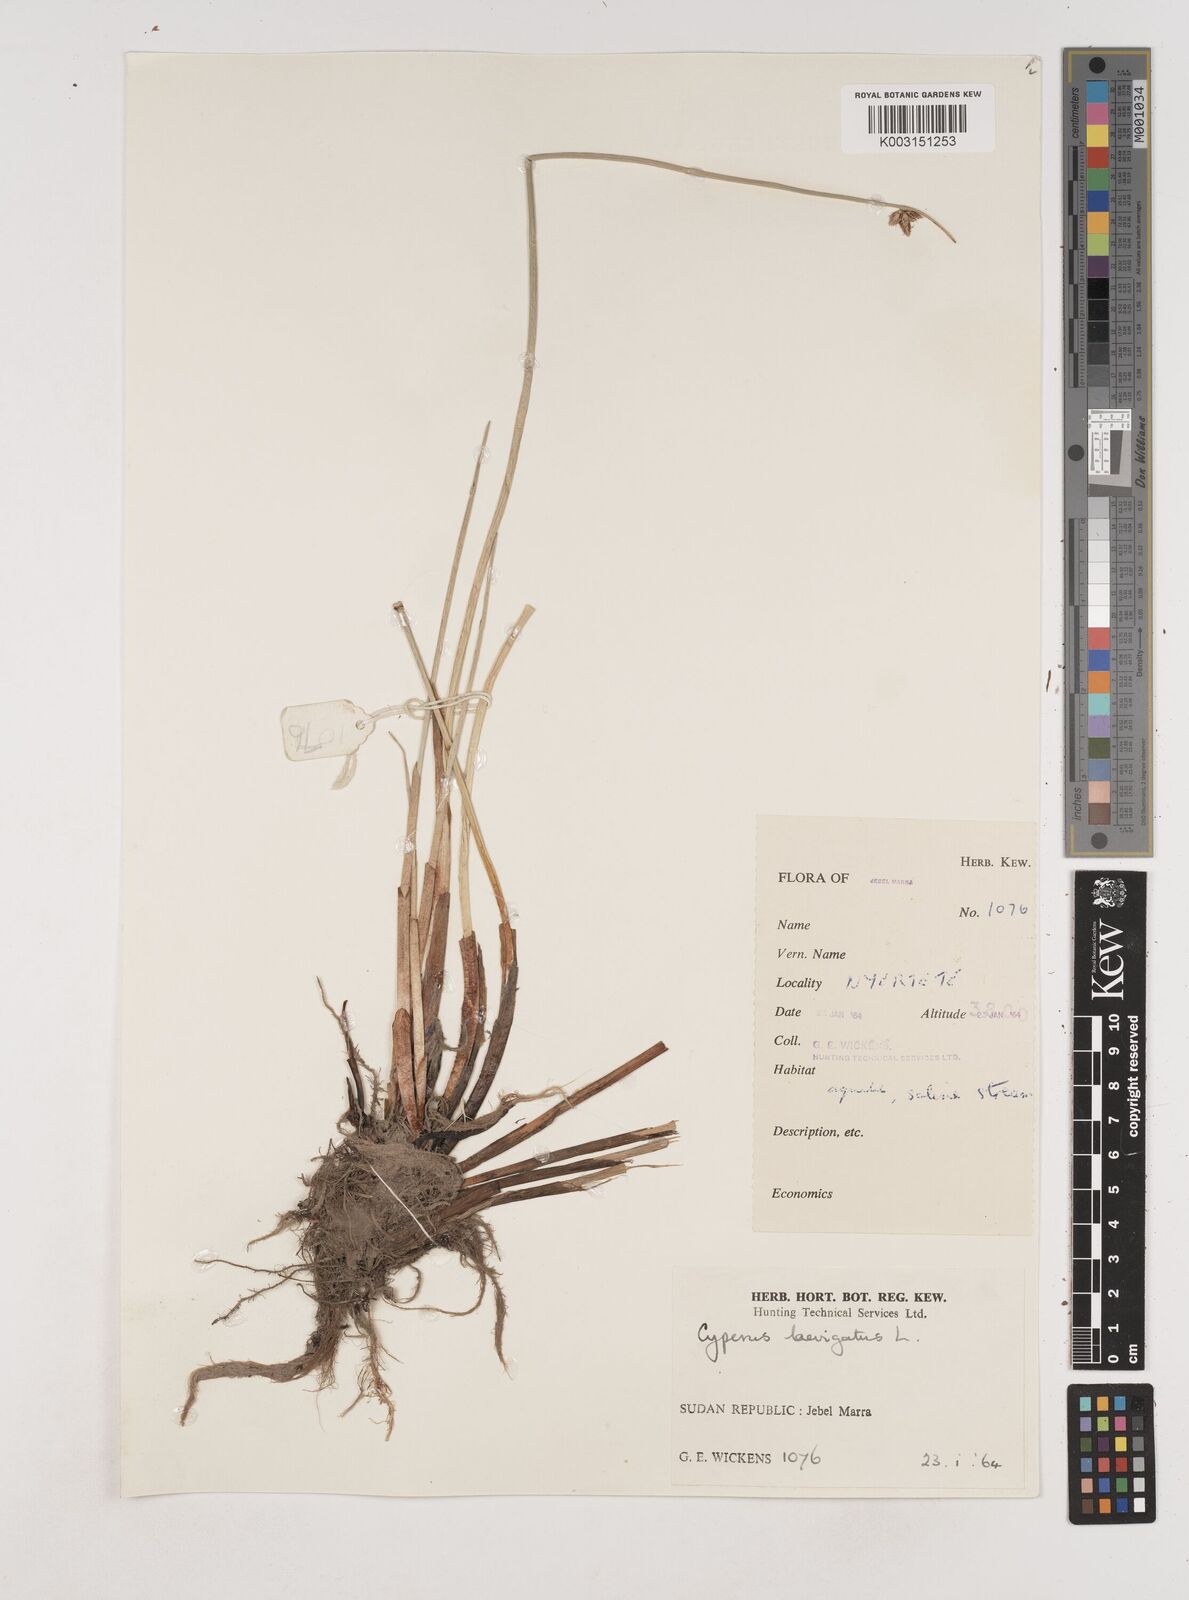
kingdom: Plantae
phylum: Tracheophyta
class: Liliopsida
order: Poales
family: Cyperaceae
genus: Cyperus
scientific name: Cyperus laevigatus
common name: Smooth flat sedge
